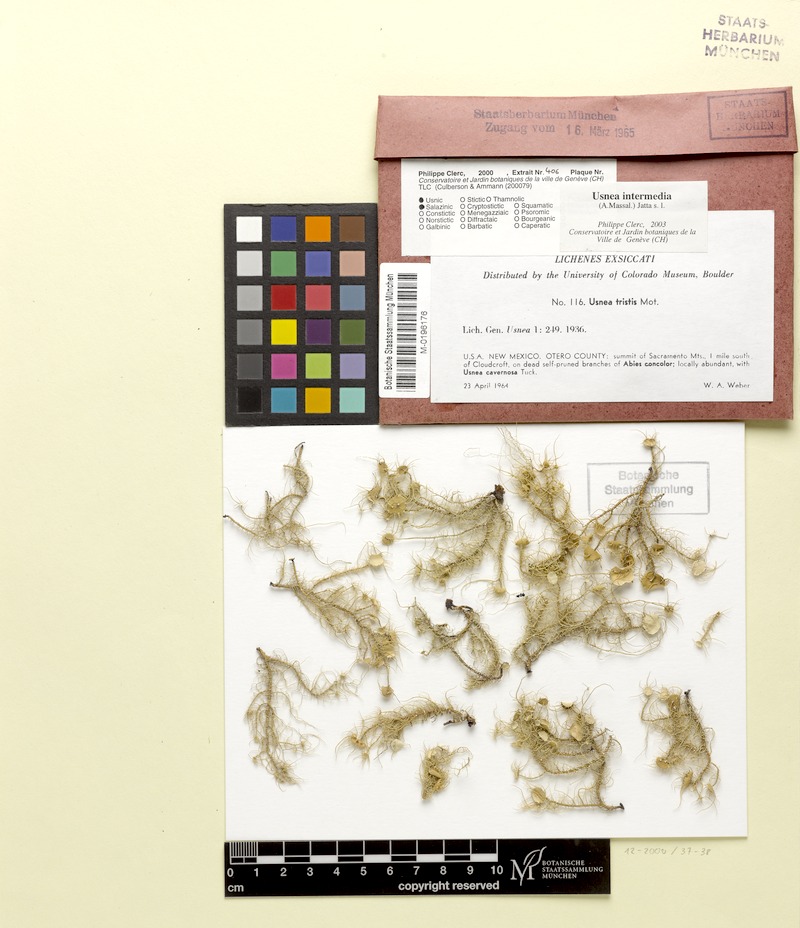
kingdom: Fungi
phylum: Ascomycota
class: Lecanoromycetes
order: Lecanorales
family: Parmeliaceae
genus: Usnea
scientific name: Usnea intermedia
